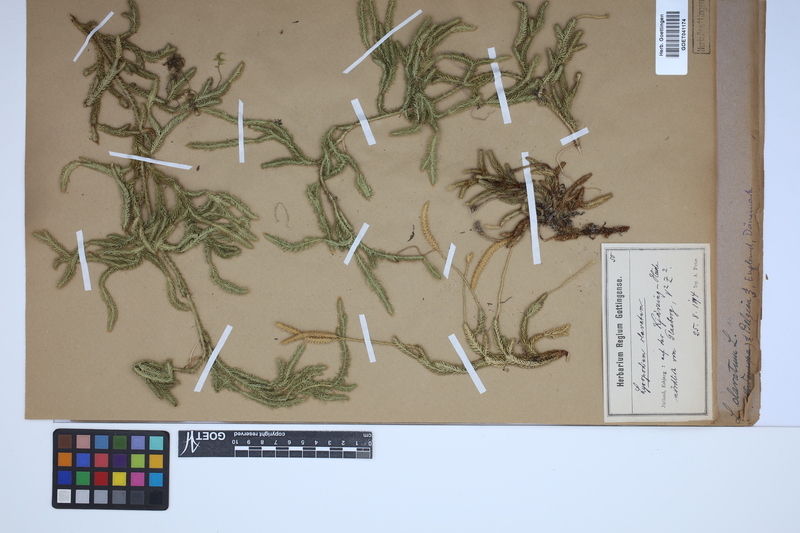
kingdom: Plantae
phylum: Tracheophyta
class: Lycopodiopsida
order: Lycopodiales
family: Lycopodiaceae
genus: Lycopodium
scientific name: Lycopodium clavatum
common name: Stag's-horn clubmoss
